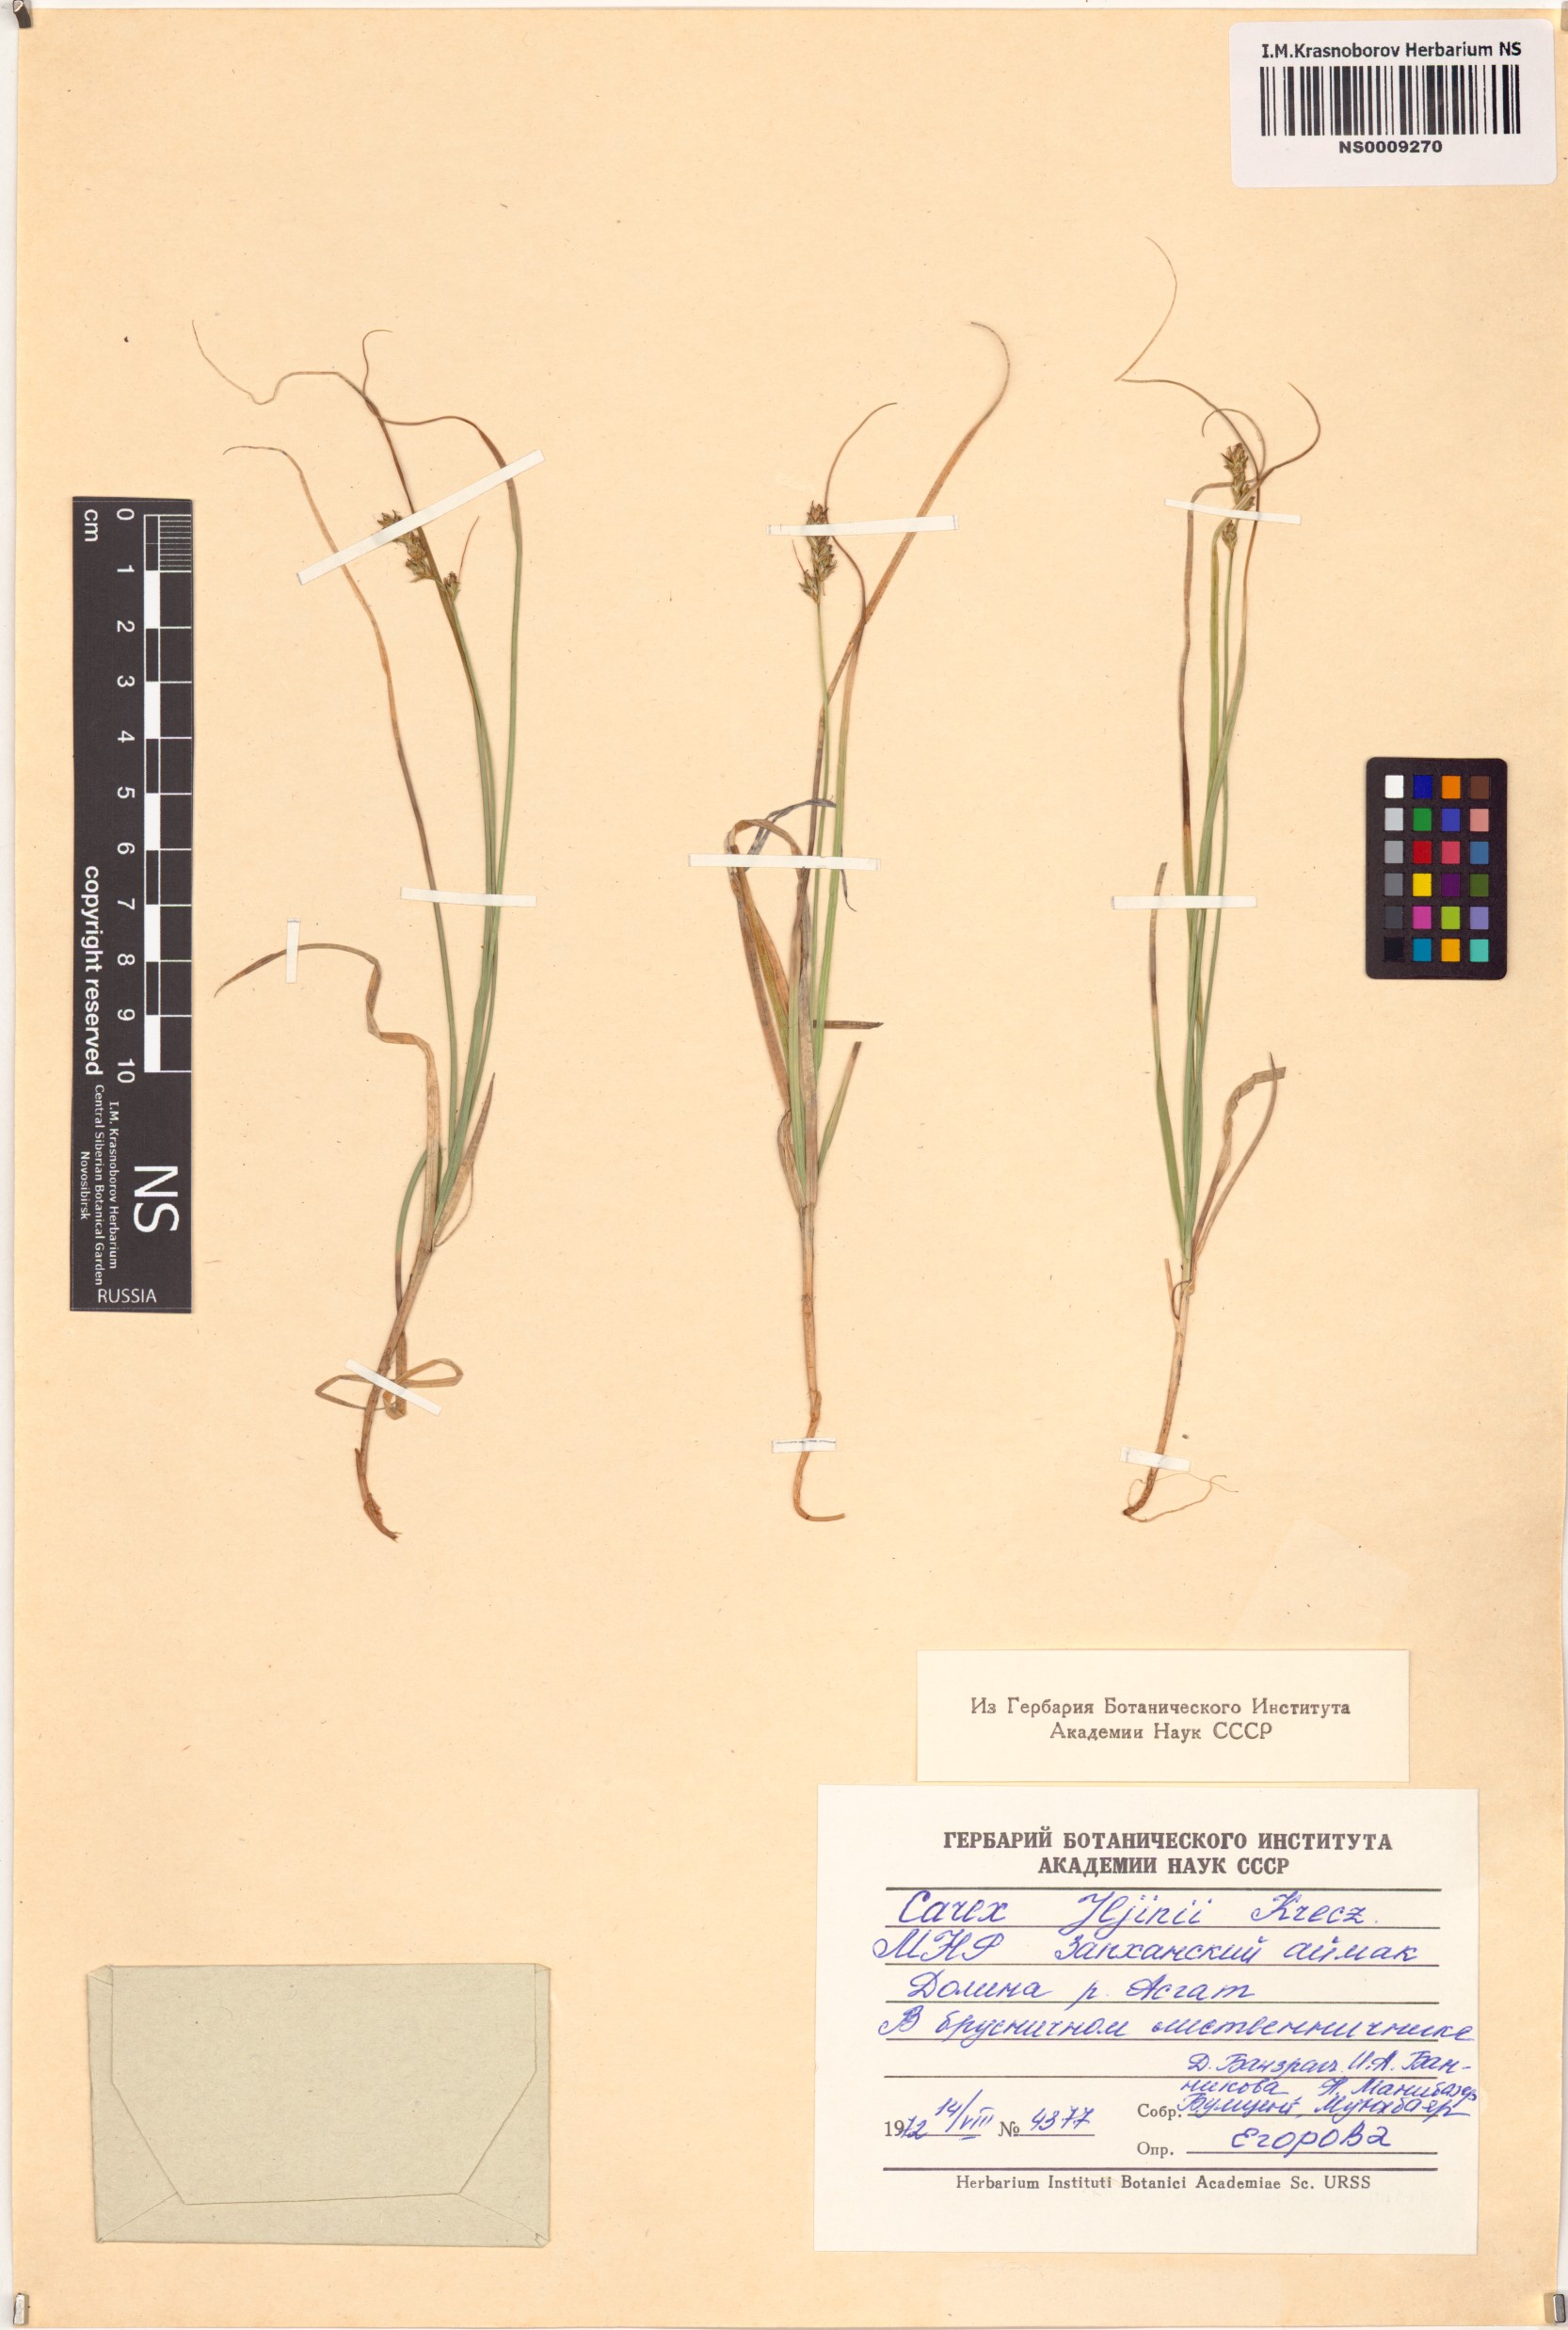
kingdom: Plantae
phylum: Tracheophyta
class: Liliopsida
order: Poales
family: Cyperaceae
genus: Carex
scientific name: Carex iljinii
